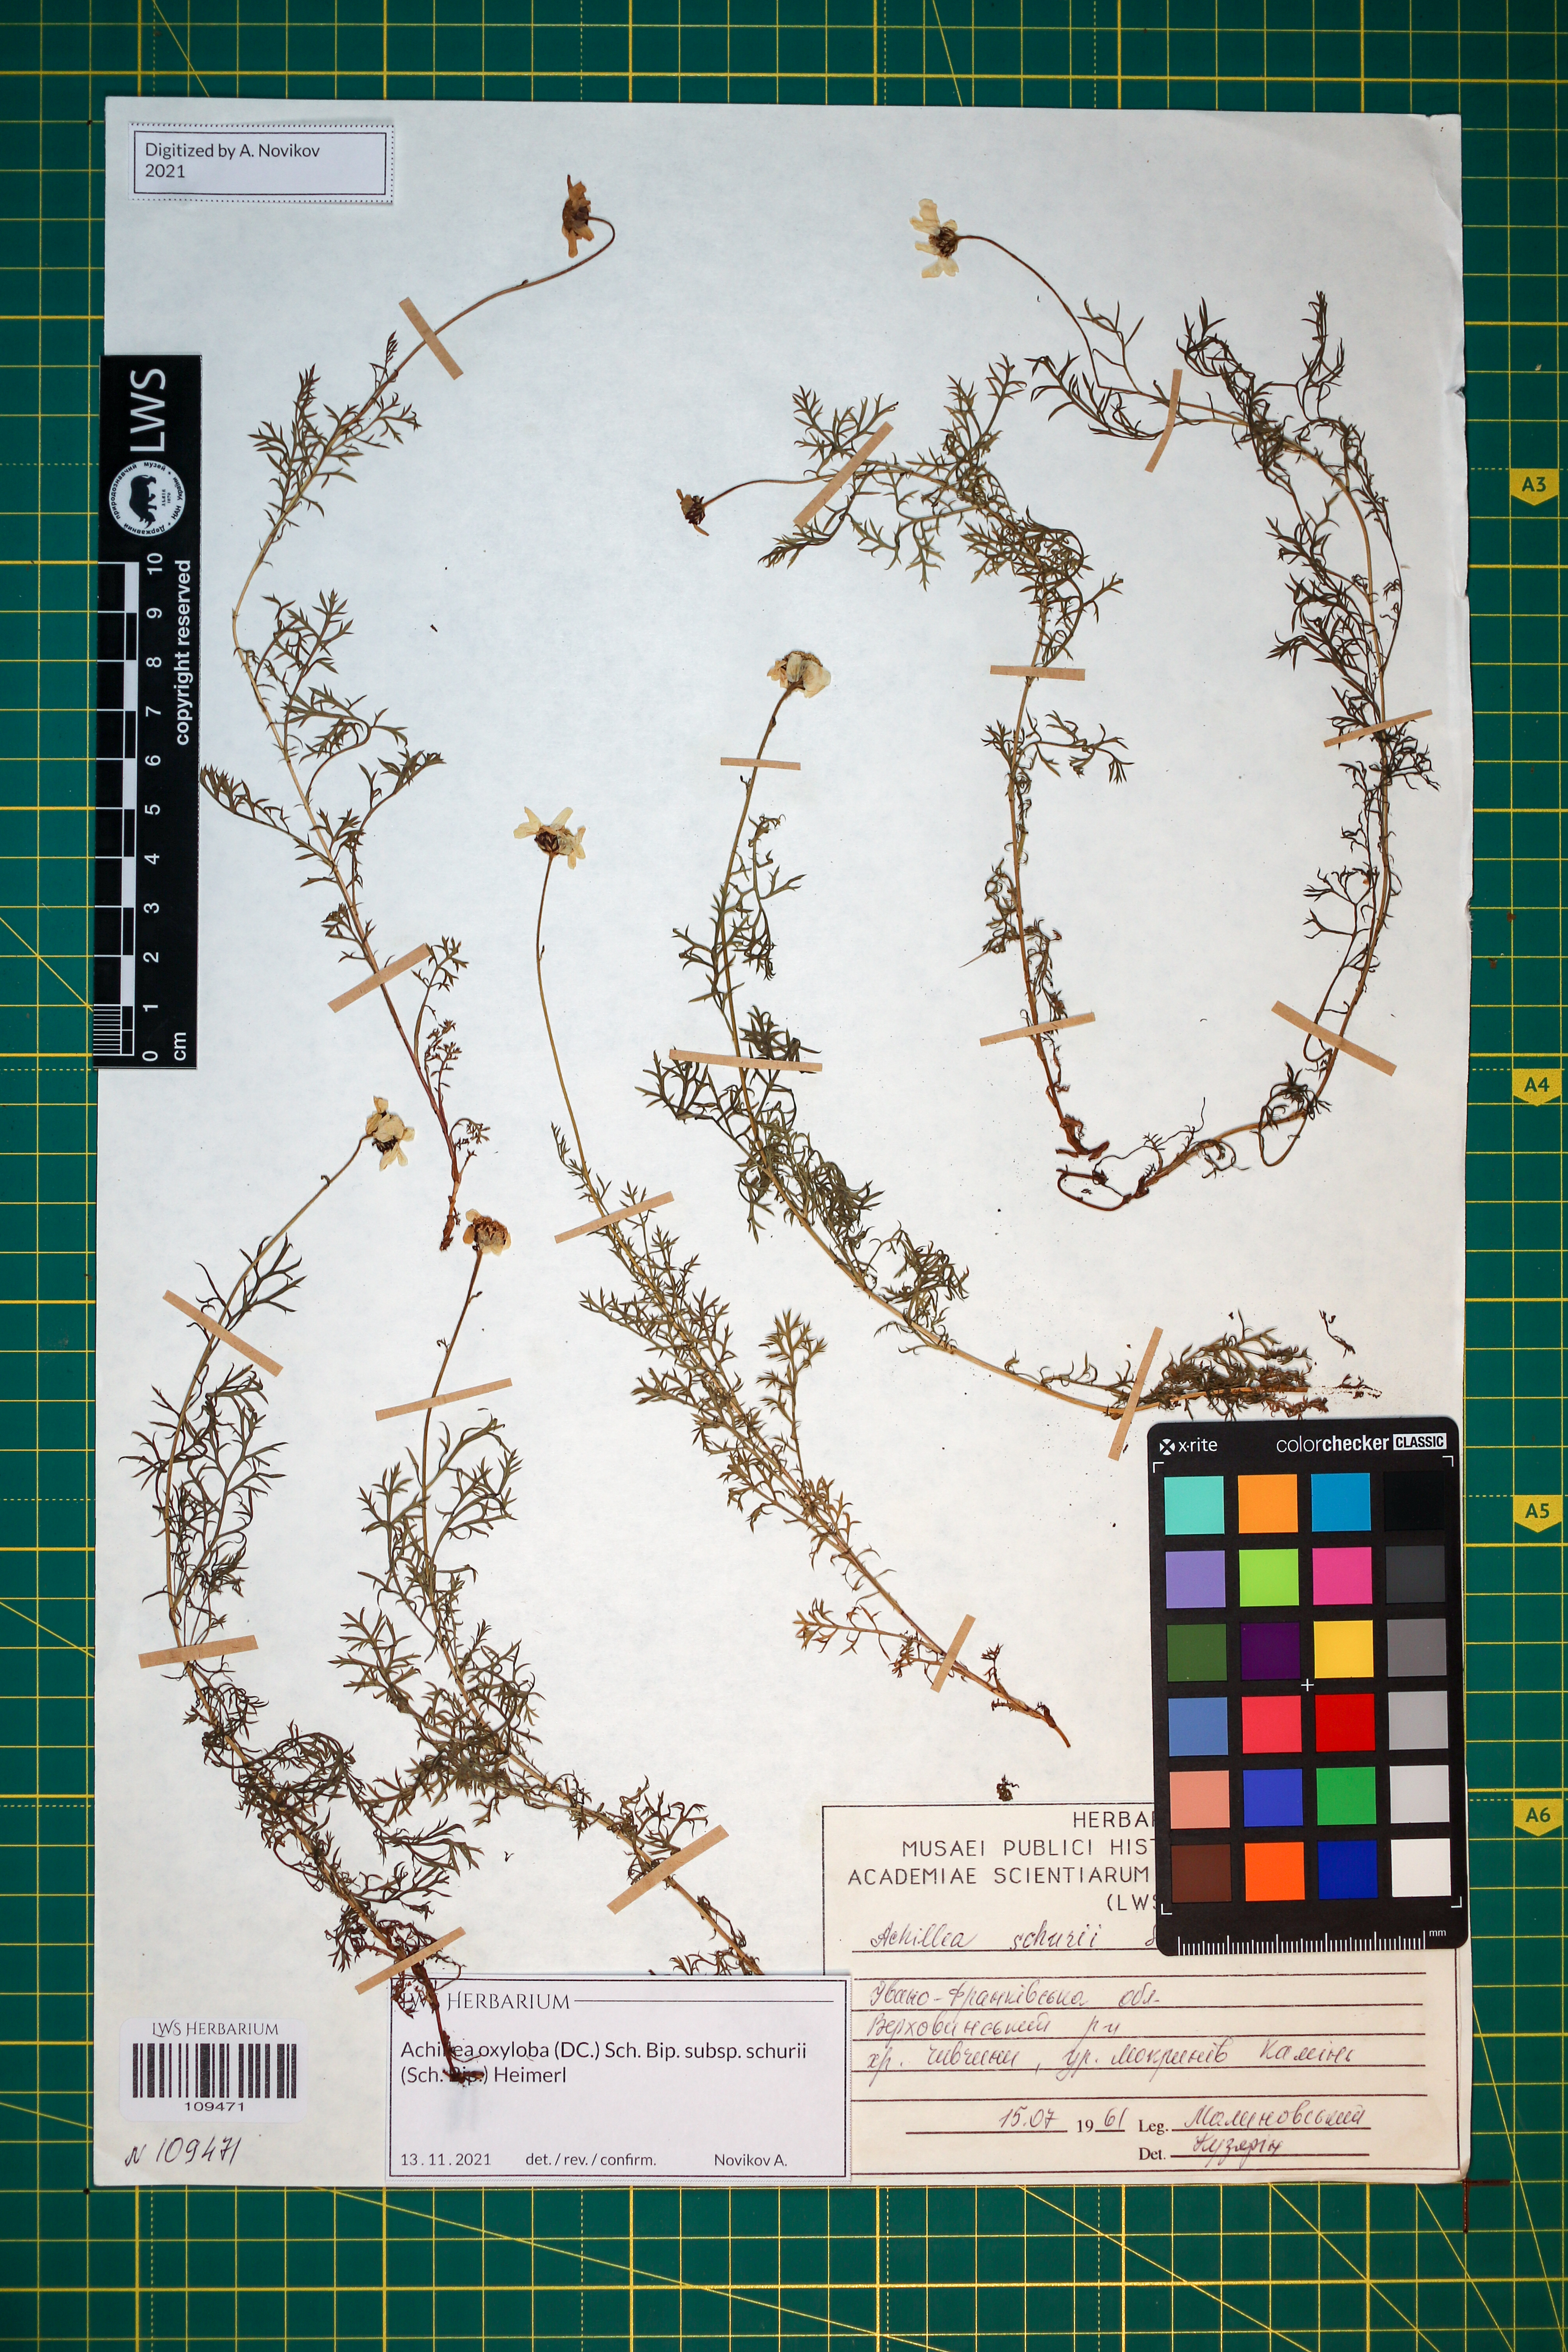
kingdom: Plantae
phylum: Tracheophyta
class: Magnoliopsida
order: Asterales
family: Asteraceae
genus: Achillea
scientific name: Achillea oxyloba
